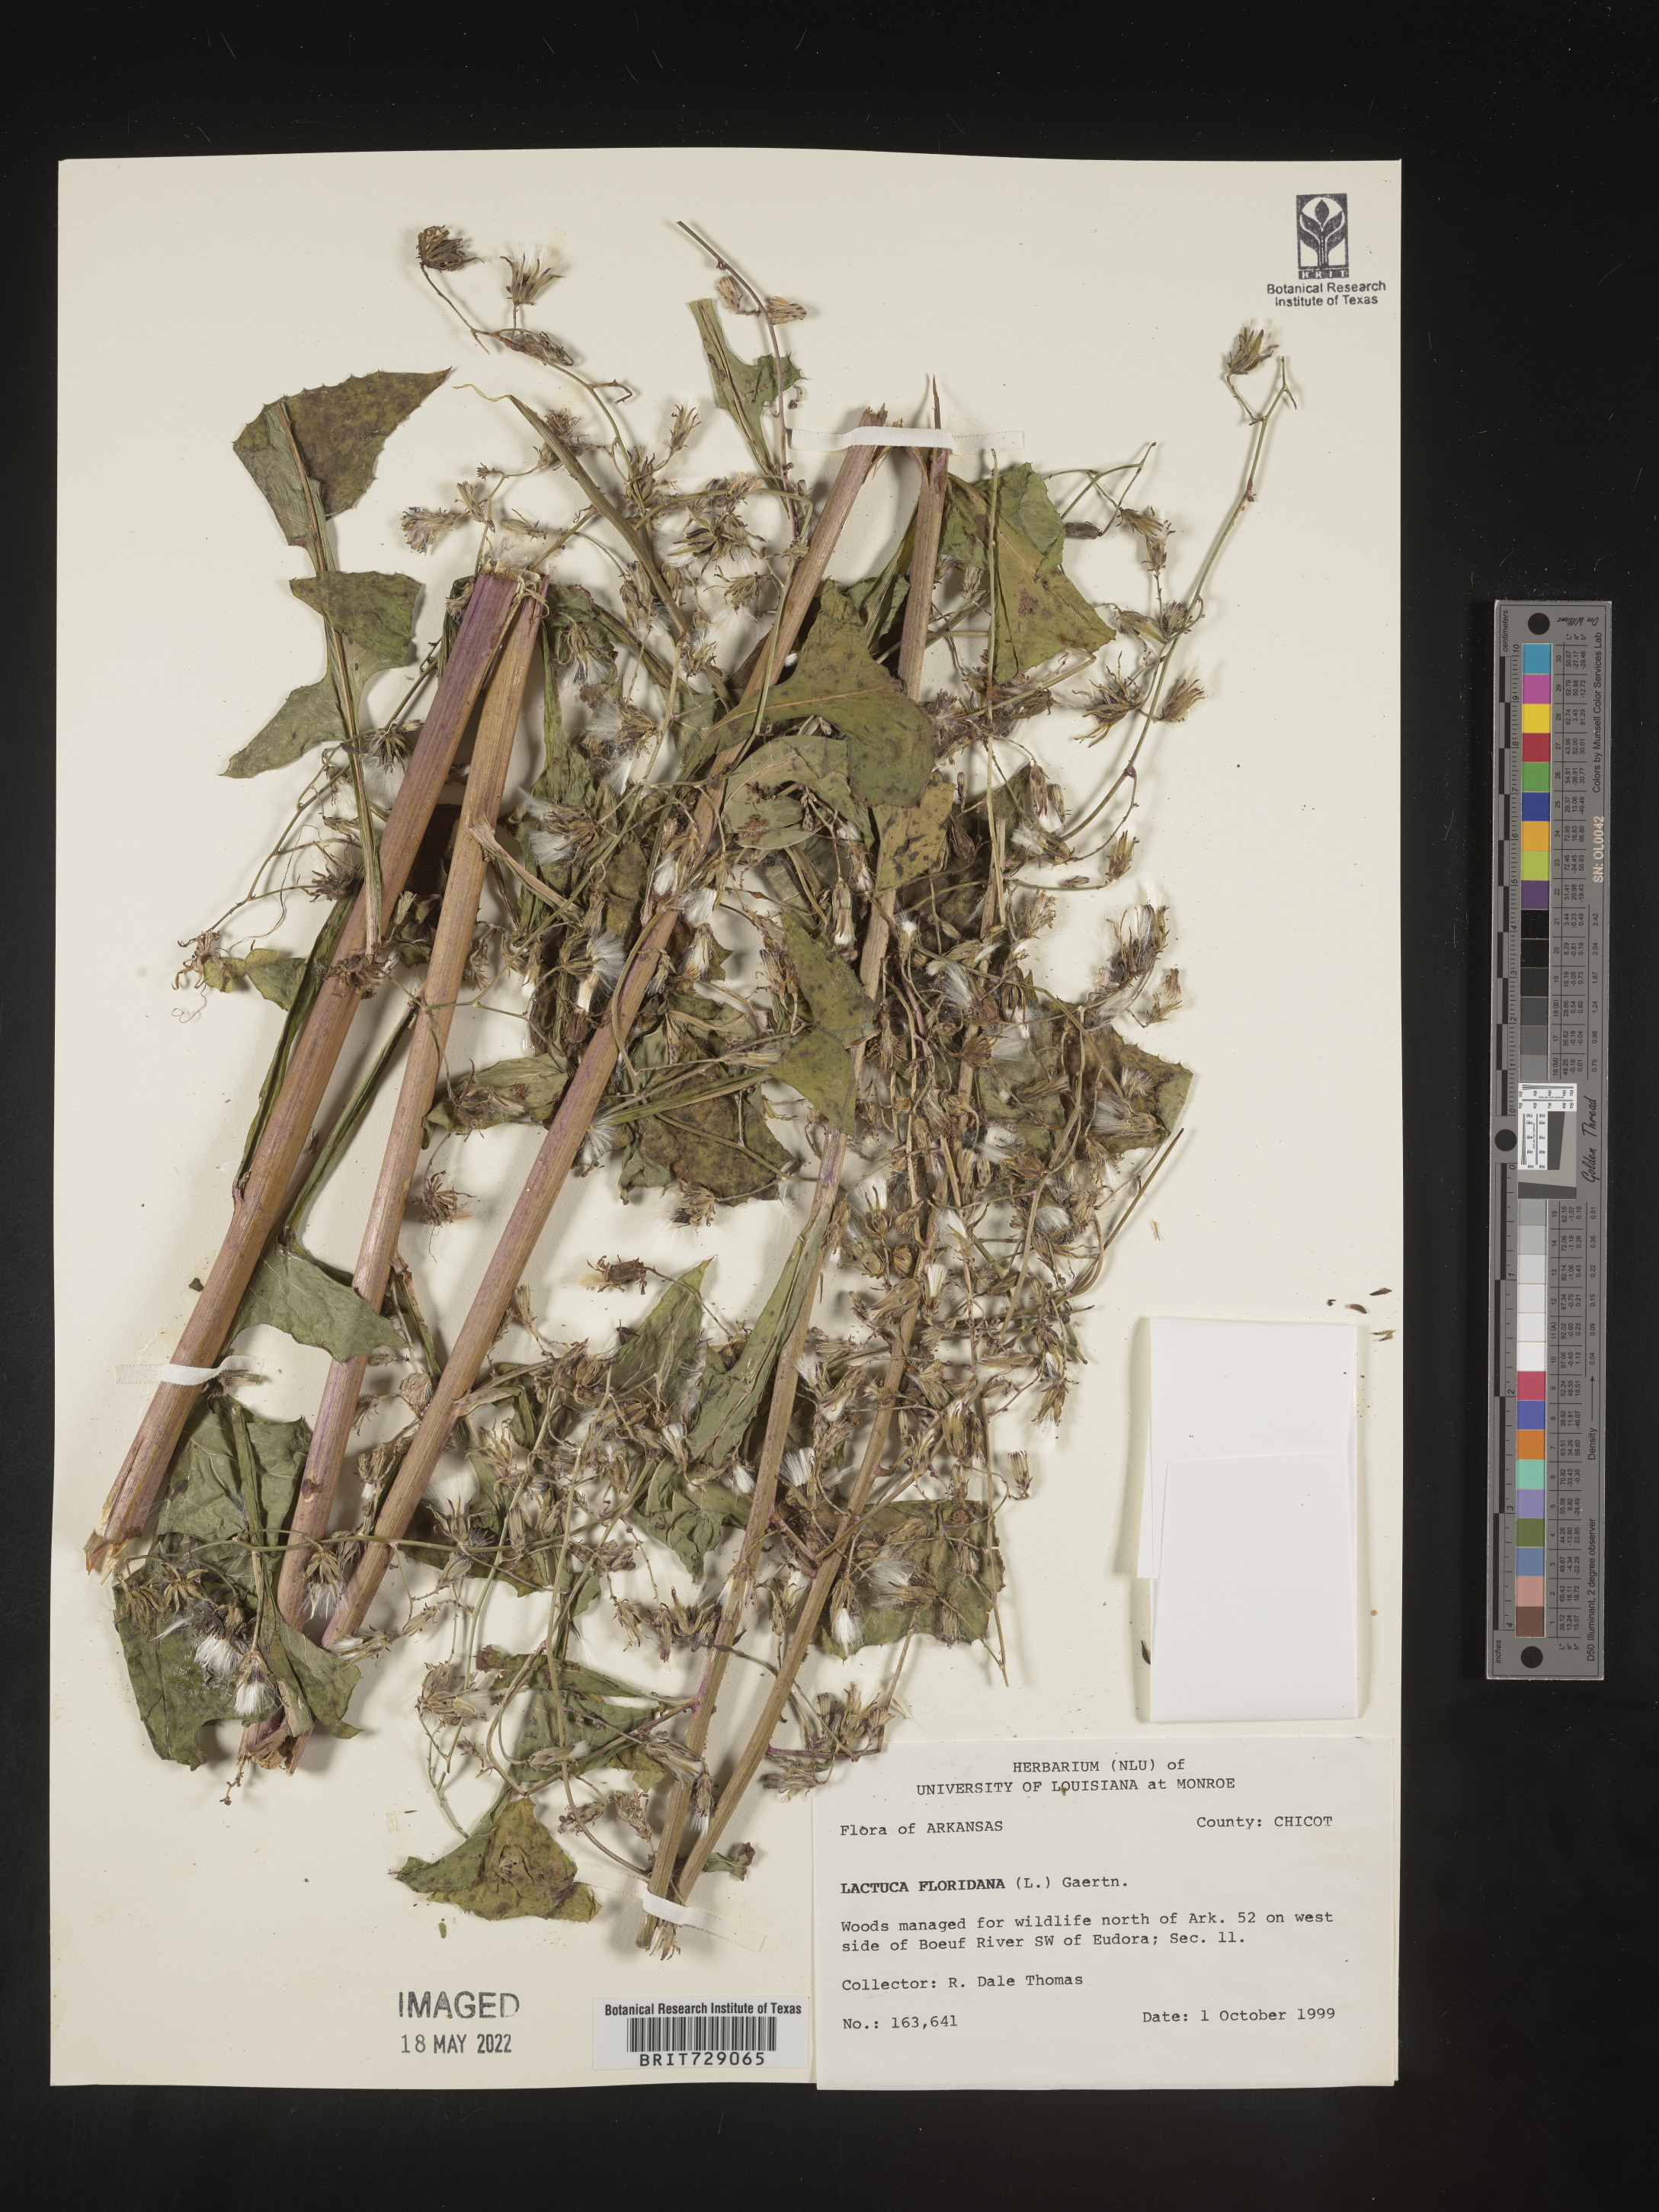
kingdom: Plantae
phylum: Tracheophyta
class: Magnoliopsida
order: Asterales
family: Asteraceae
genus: Lactuca
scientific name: Lactuca floridana
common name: Woodland lettuce
